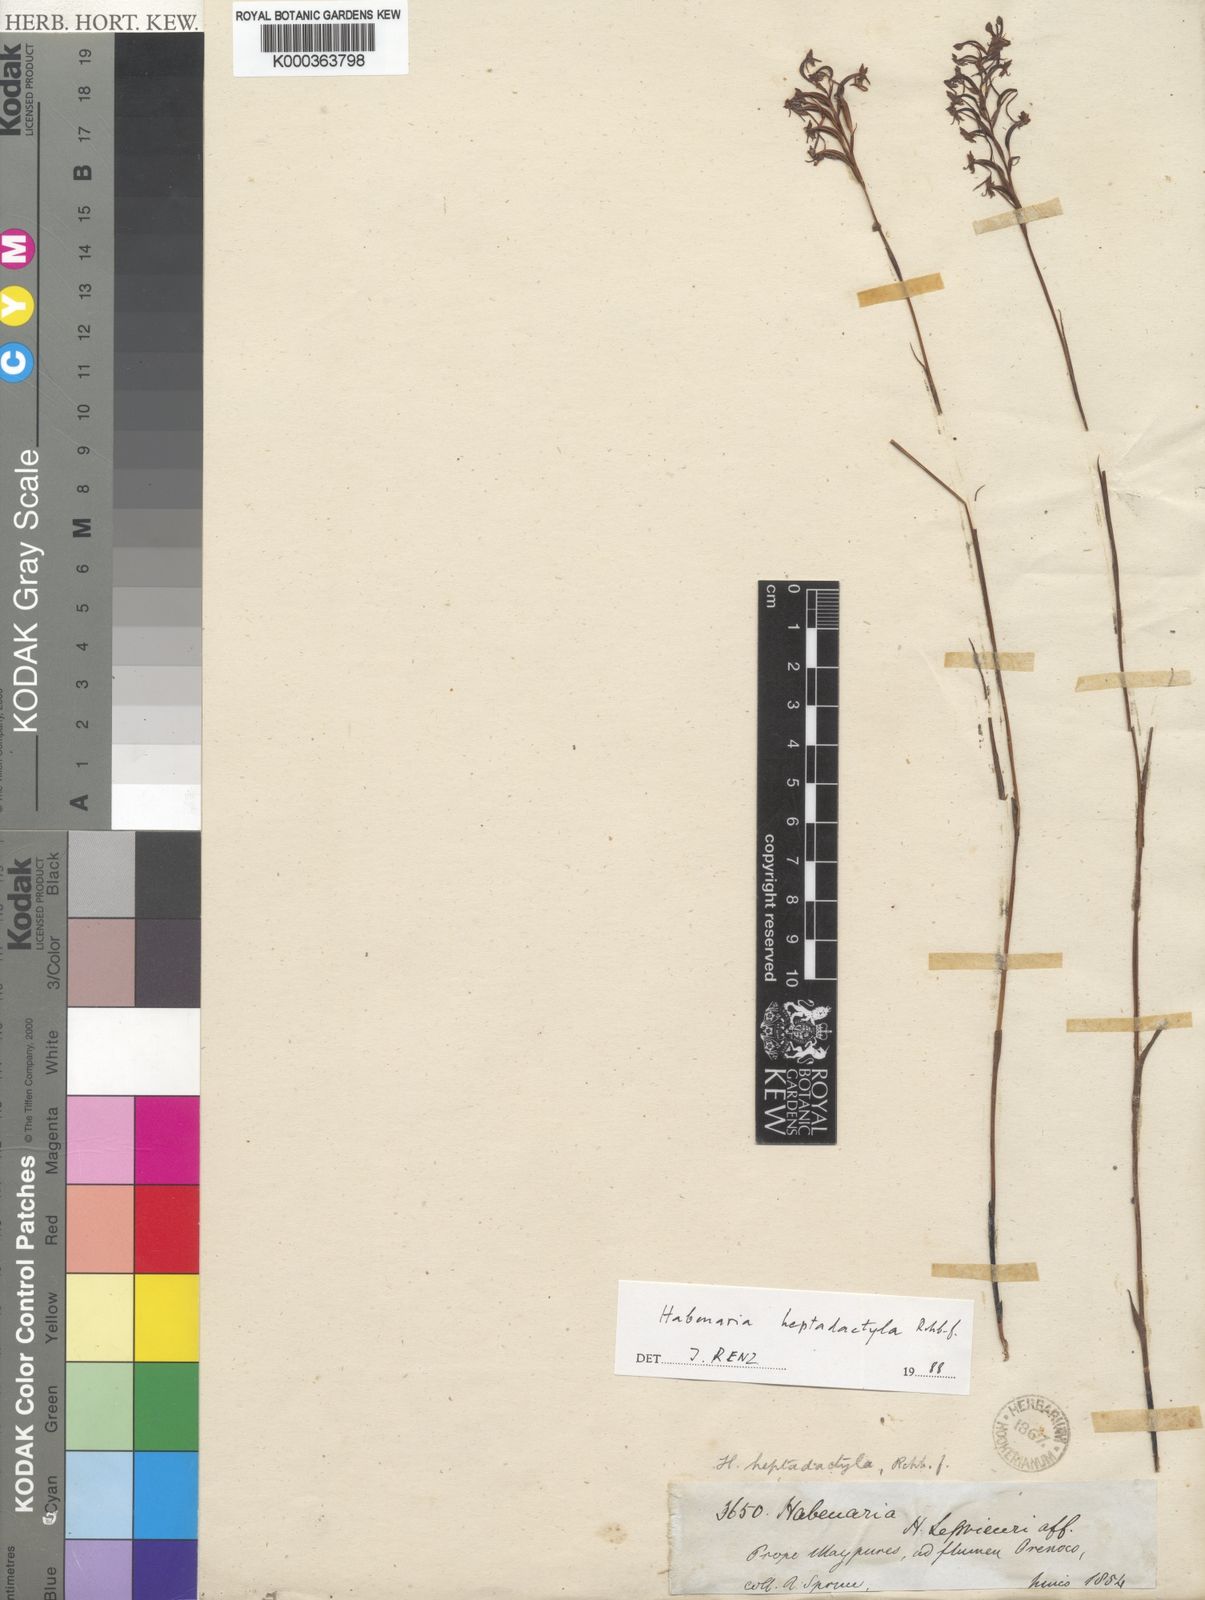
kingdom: Plantae
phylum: Tracheophyta
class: Liliopsida
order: Asparagales
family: Orchidaceae
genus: Habenaria
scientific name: Habenaria heptadactyla
